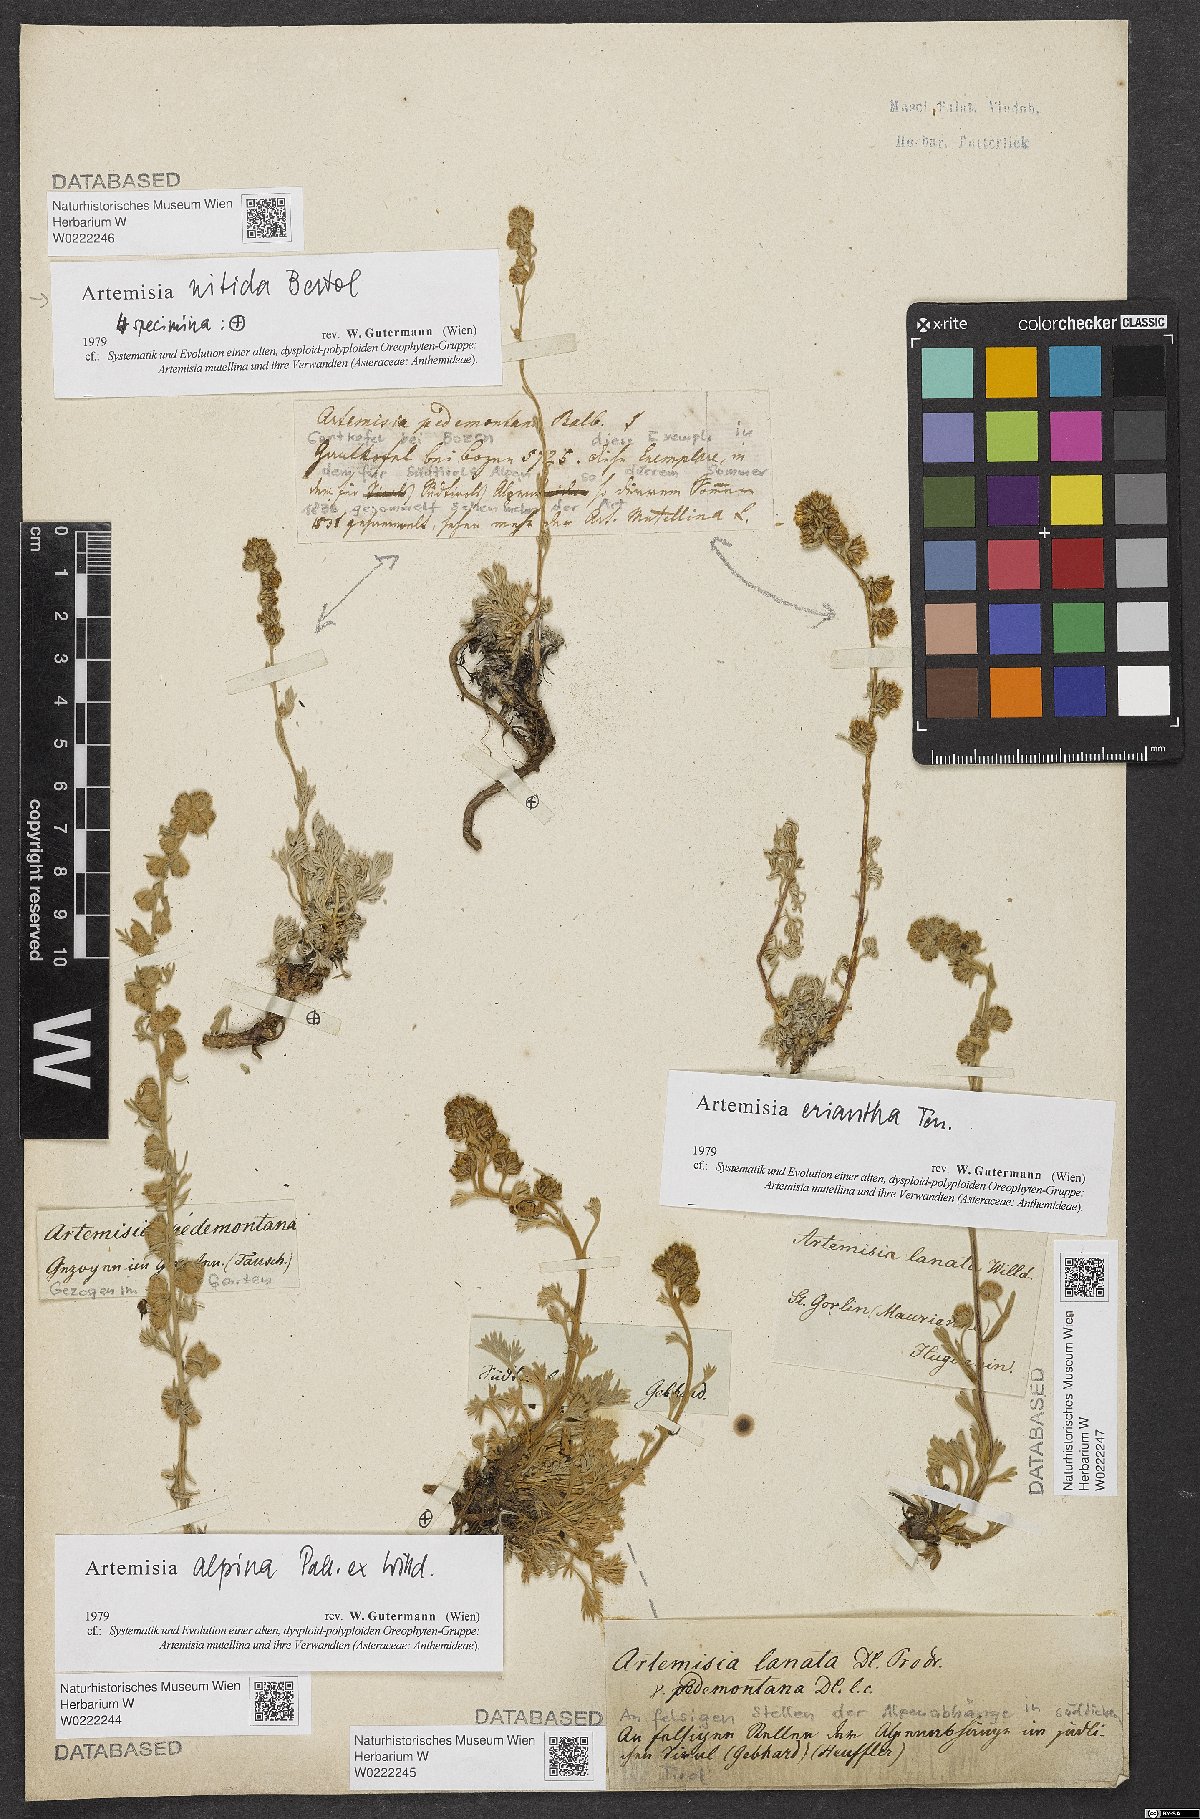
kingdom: Plantae
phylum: Tracheophyta
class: Magnoliopsida
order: Asterales
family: Asteraceae
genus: Artemisia
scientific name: Artemisia pedemontana
